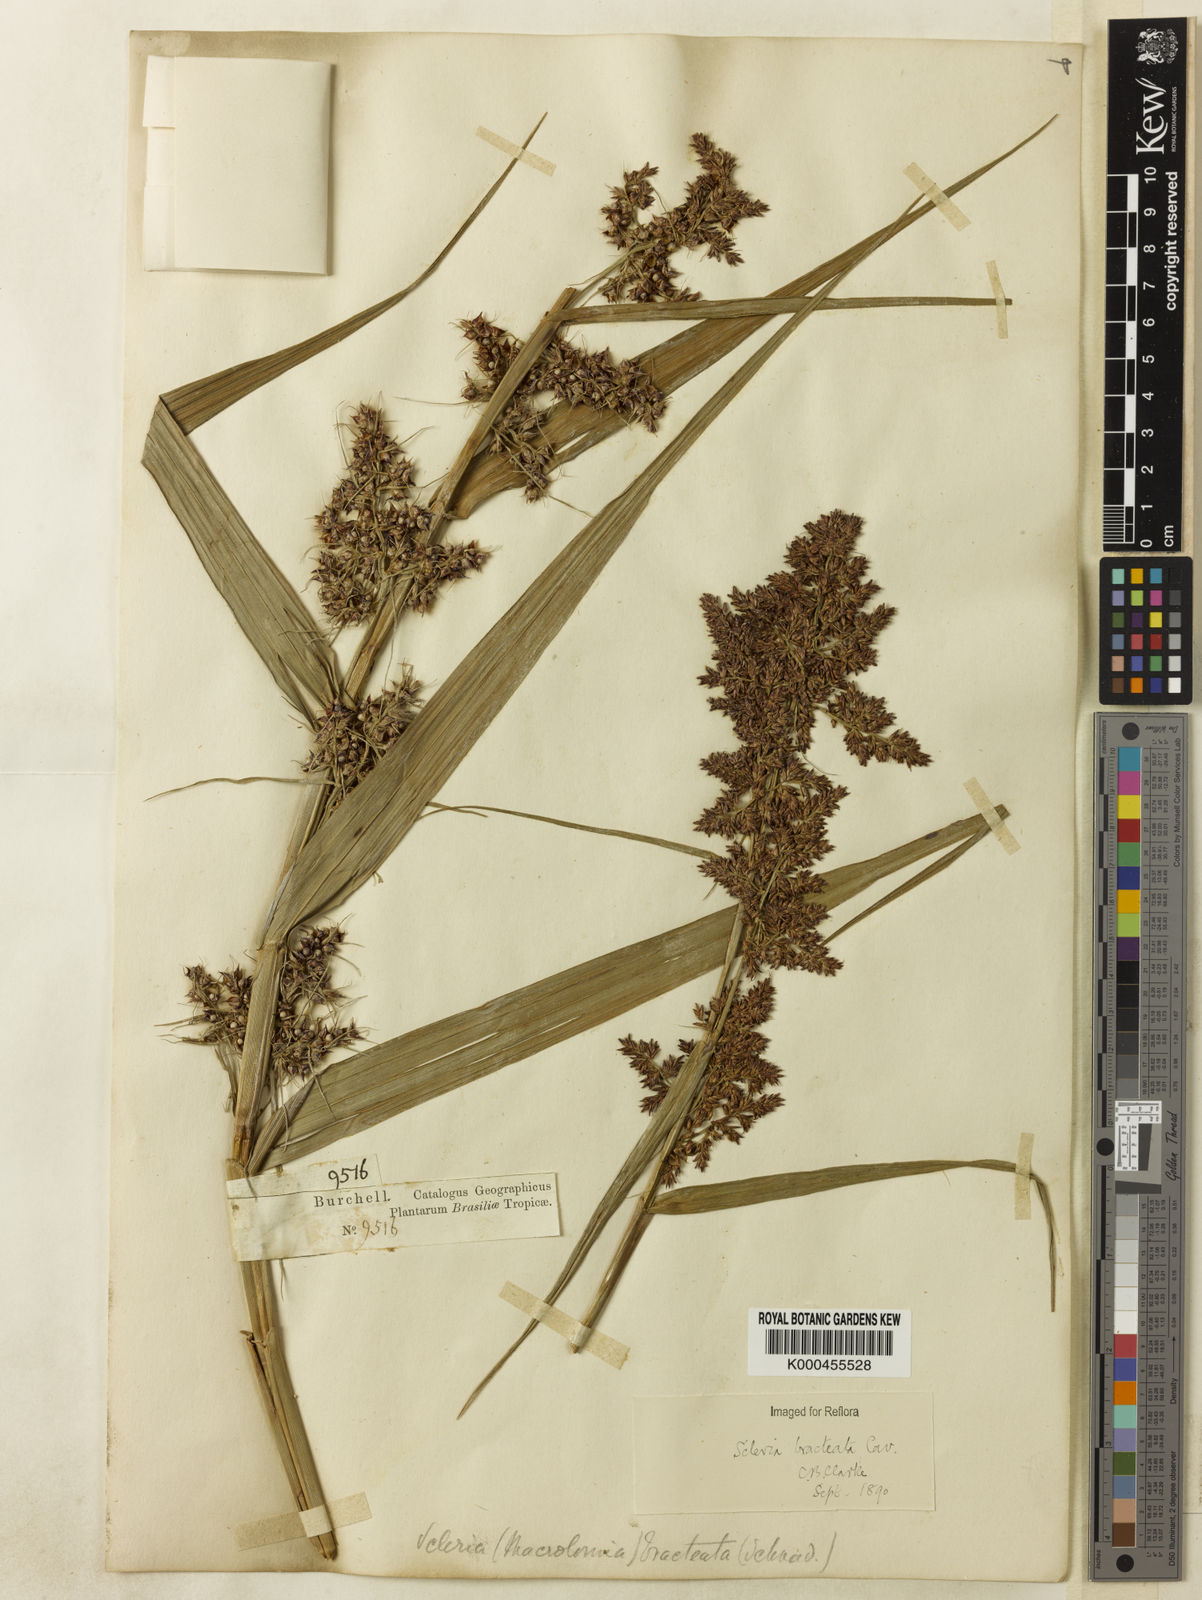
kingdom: Plantae
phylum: Tracheophyta
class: Liliopsida
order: Poales
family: Cyperaceae
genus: Scleria
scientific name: Scleria bracteata
